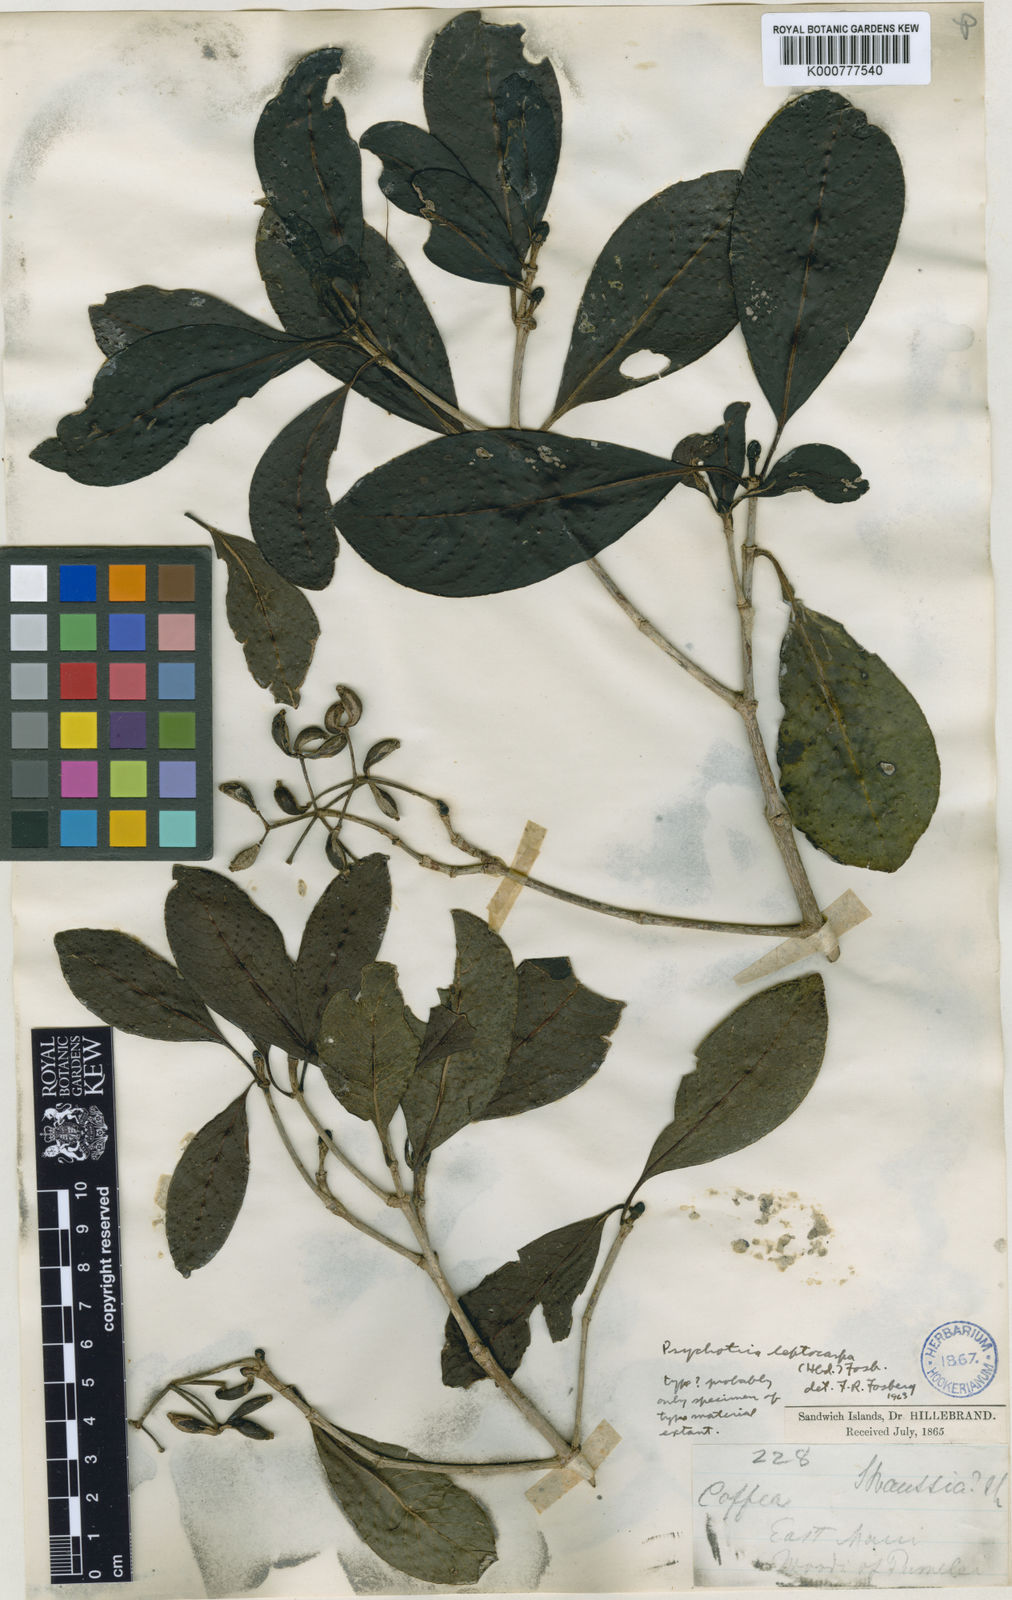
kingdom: Plantae
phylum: Tracheophyta
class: Magnoliopsida
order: Gentianales
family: Rubiaceae
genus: Psychotria
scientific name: Psychotria kaduana
